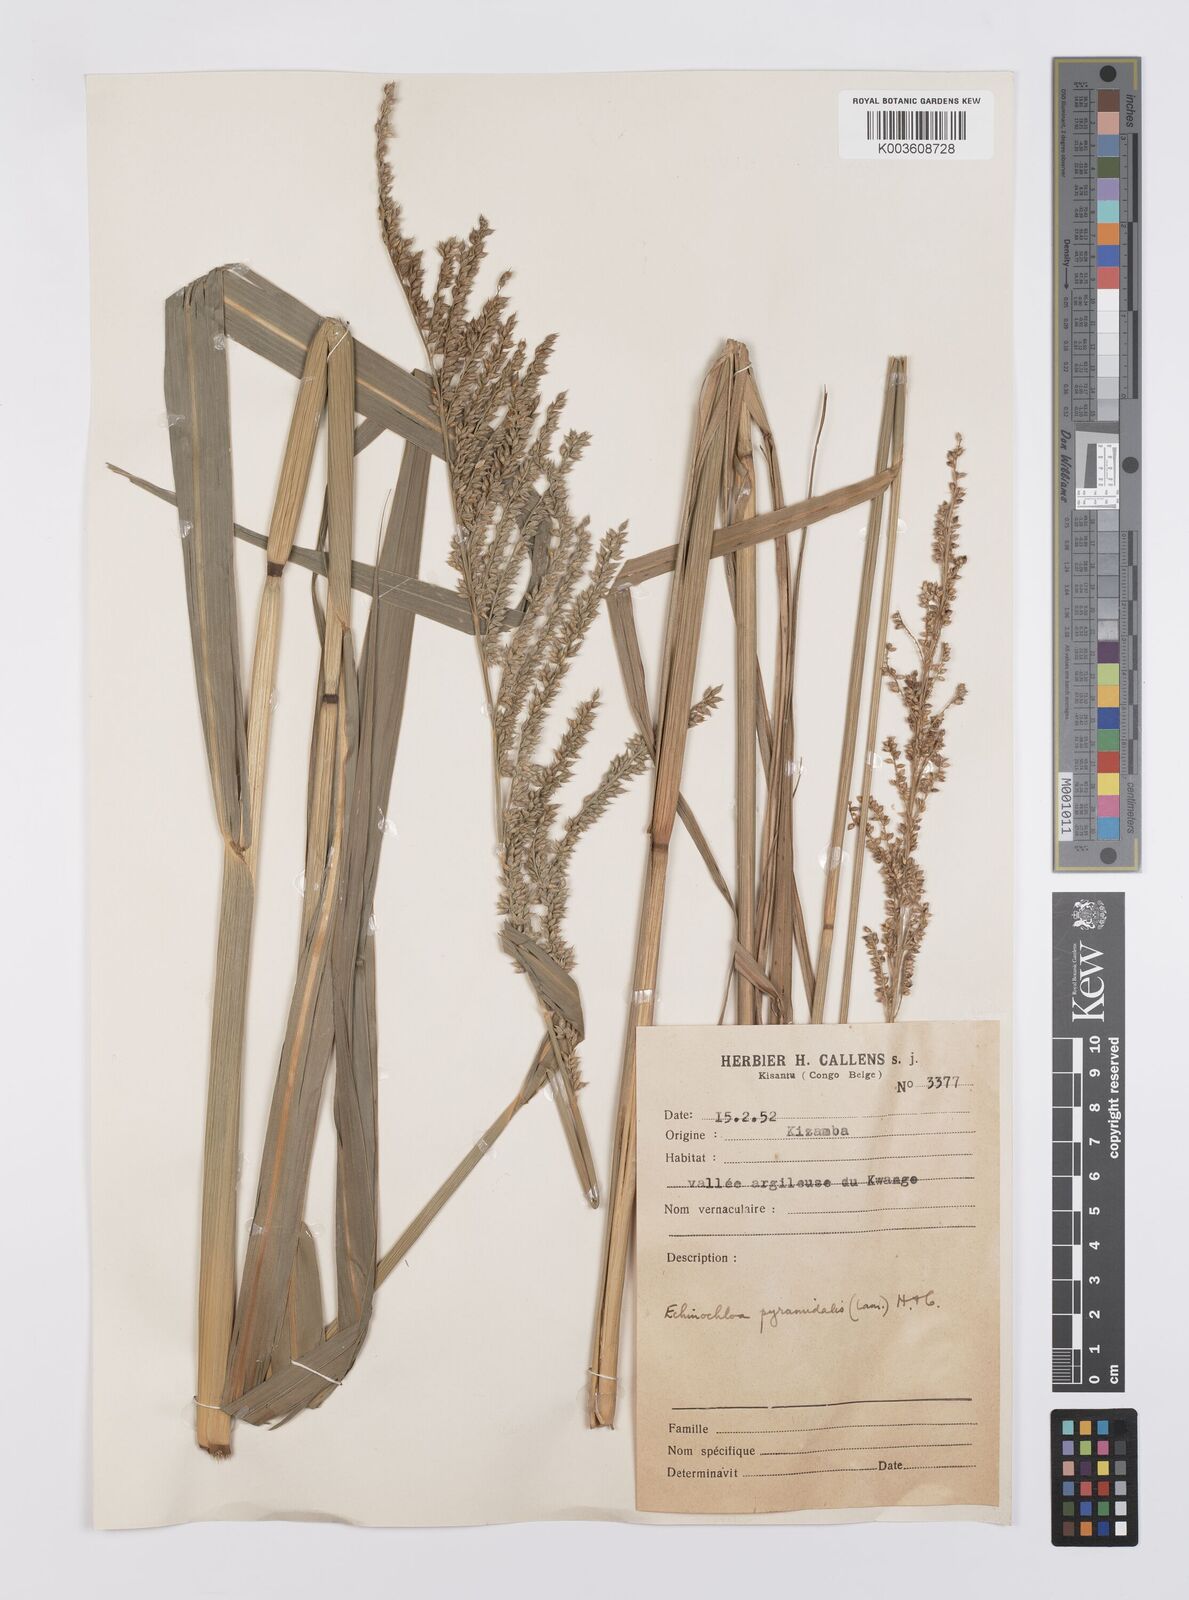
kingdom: Plantae
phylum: Tracheophyta
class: Liliopsida
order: Poales
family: Poaceae
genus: Echinochloa
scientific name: Echinochloa pyramidalis
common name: Antelope grass
